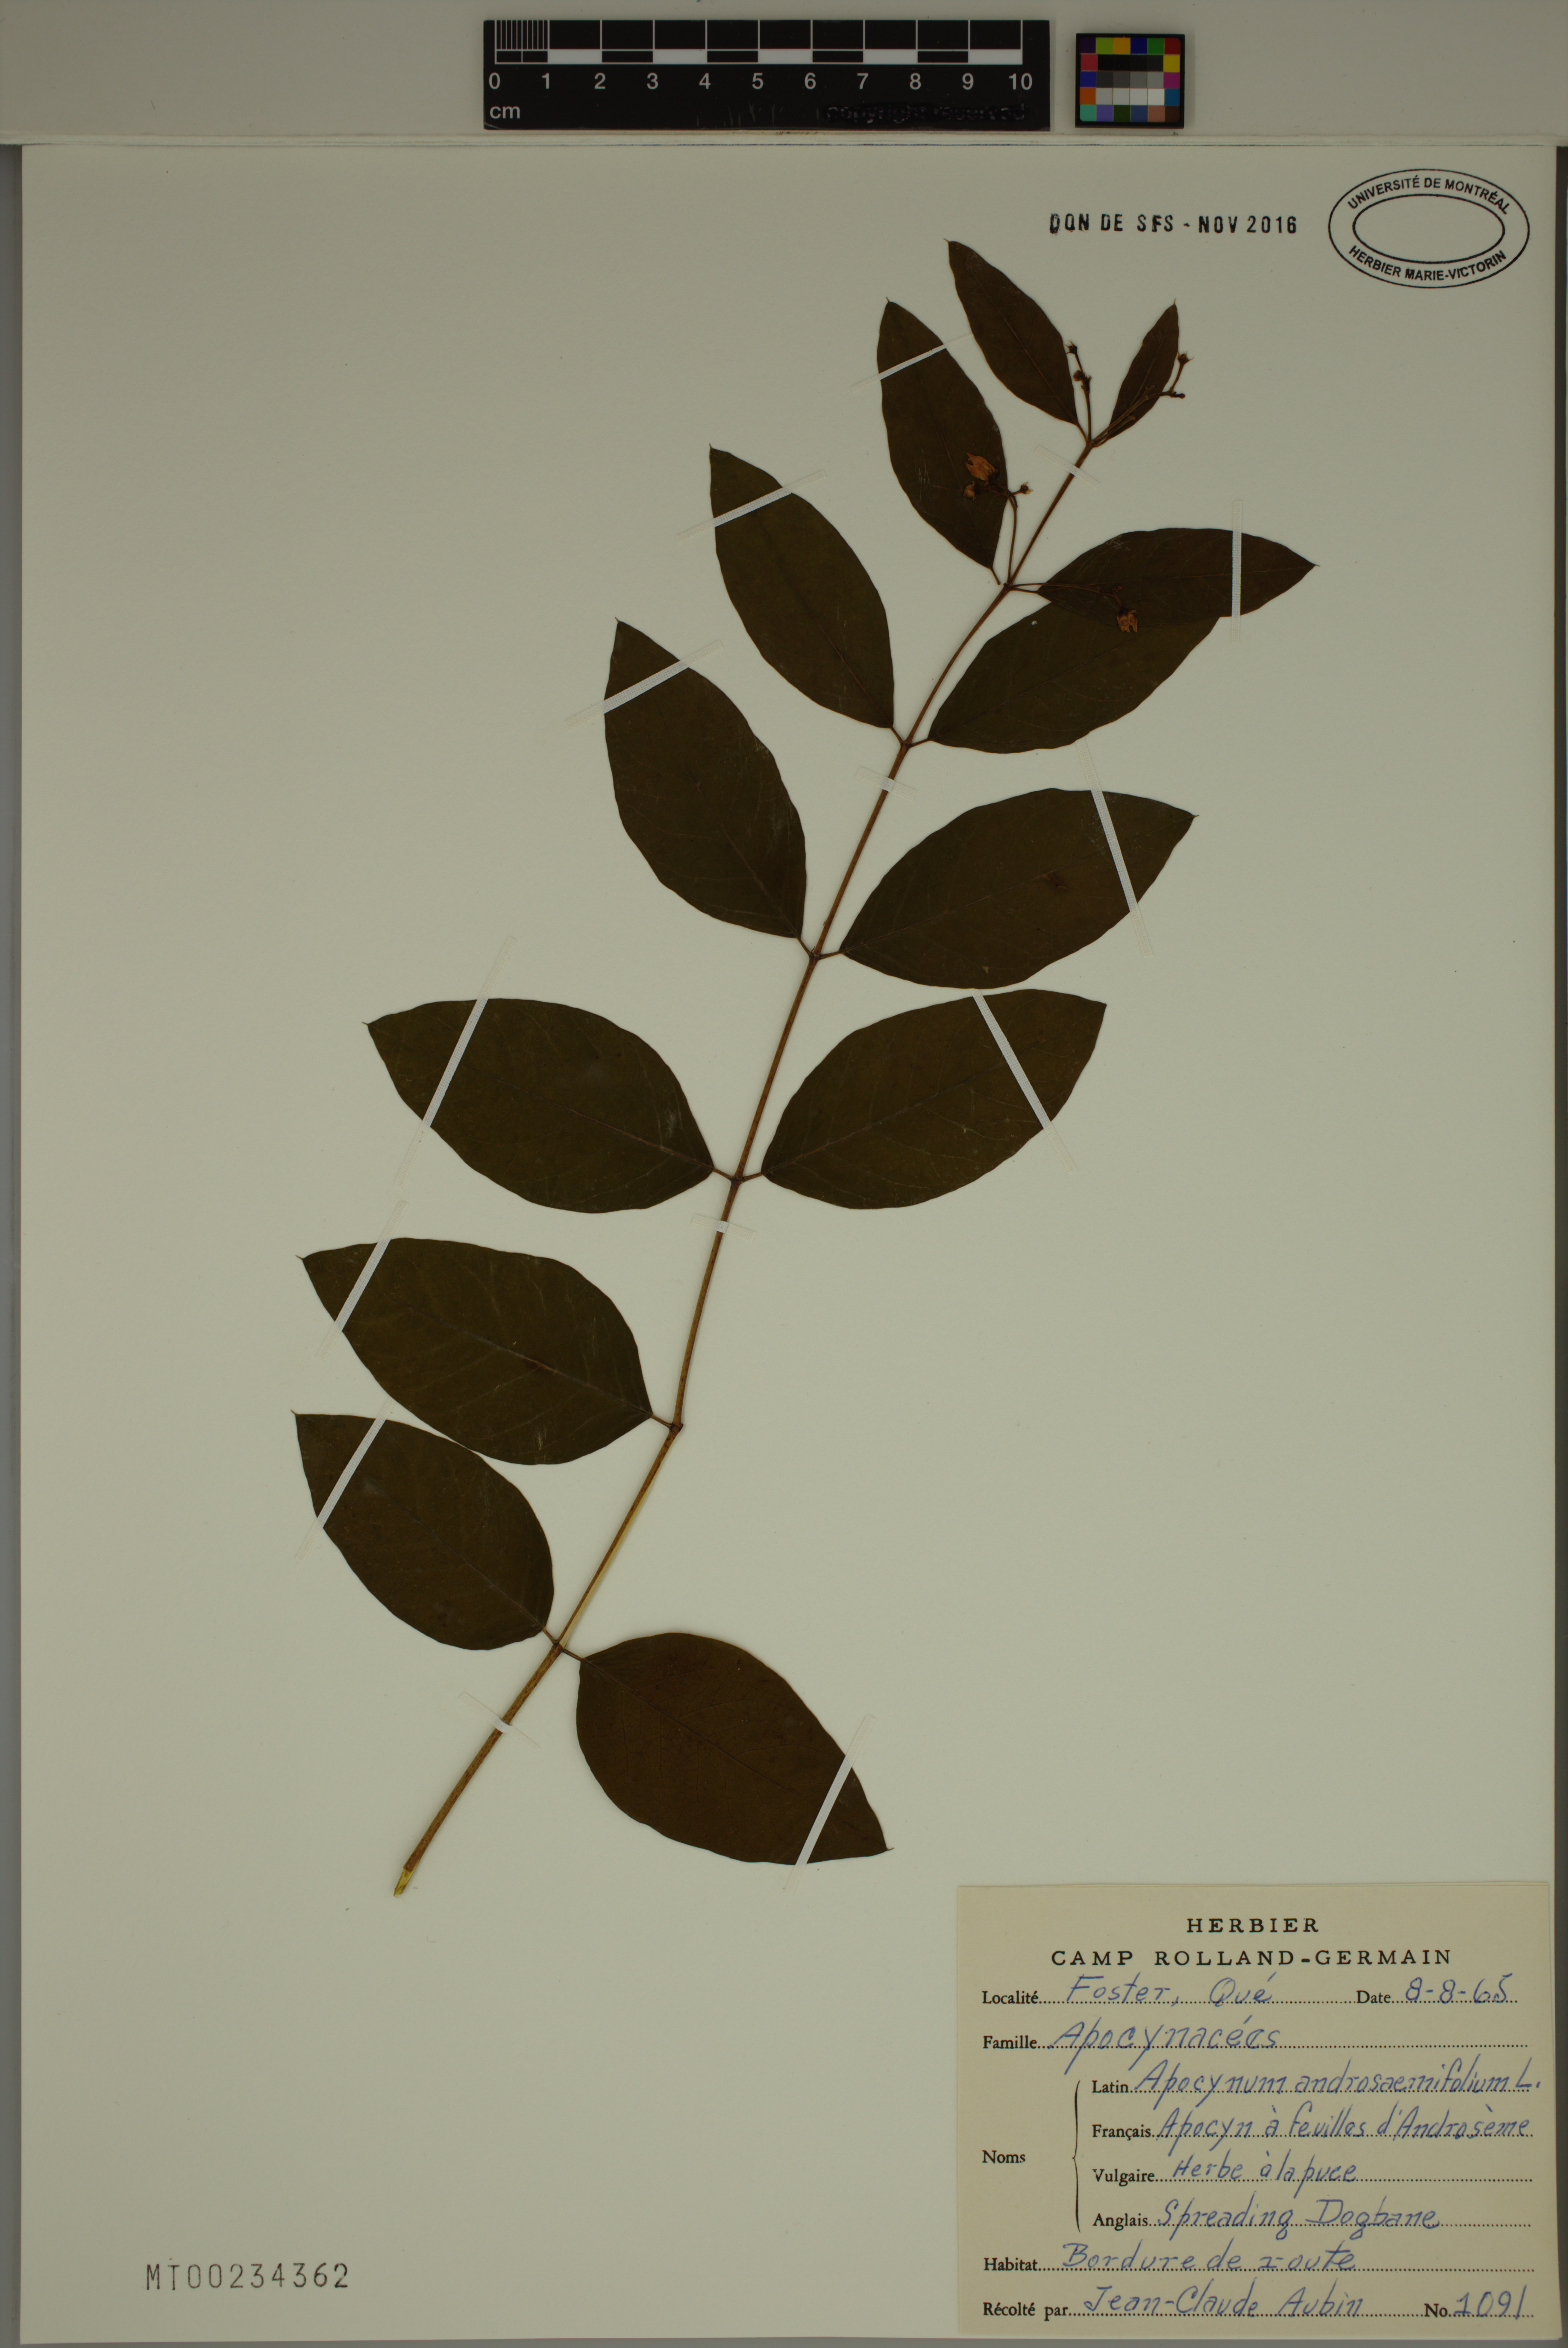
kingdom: Plantae
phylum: Tracheophyta
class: Magnoliopsida
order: Gentianales
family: Apocynaceae
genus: Apocynum
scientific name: Apocynum androsaemifolium
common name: Spreading dogbane
